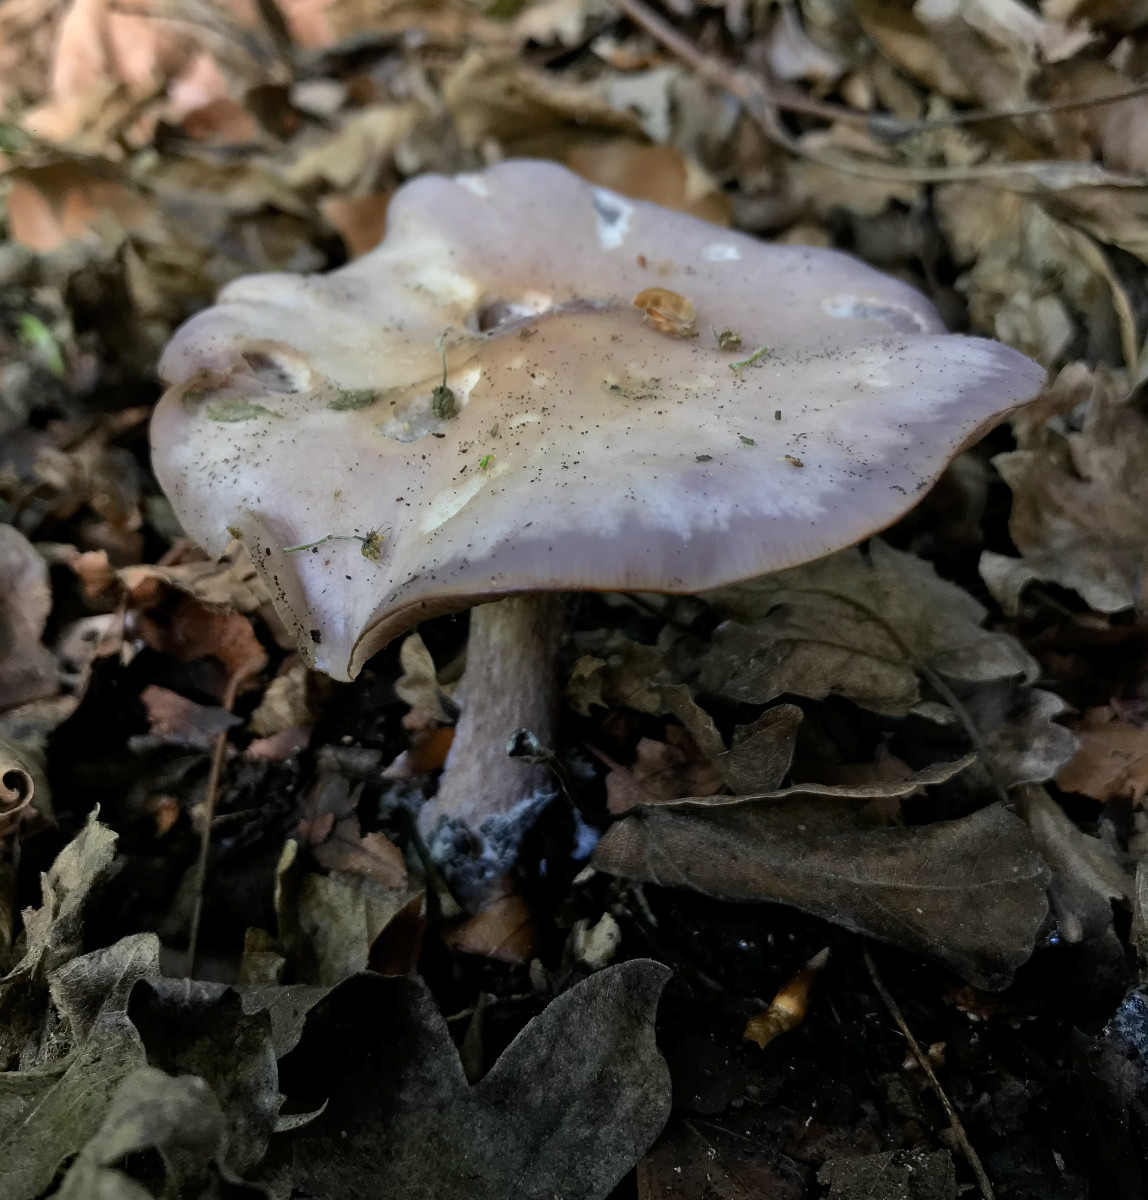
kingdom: Fungi
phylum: Basidiomycota
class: Agaricomycetes
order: Agaricales
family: Tricholomataceae
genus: Lepista
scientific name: Lepista nuda
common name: violet hekseringshat
